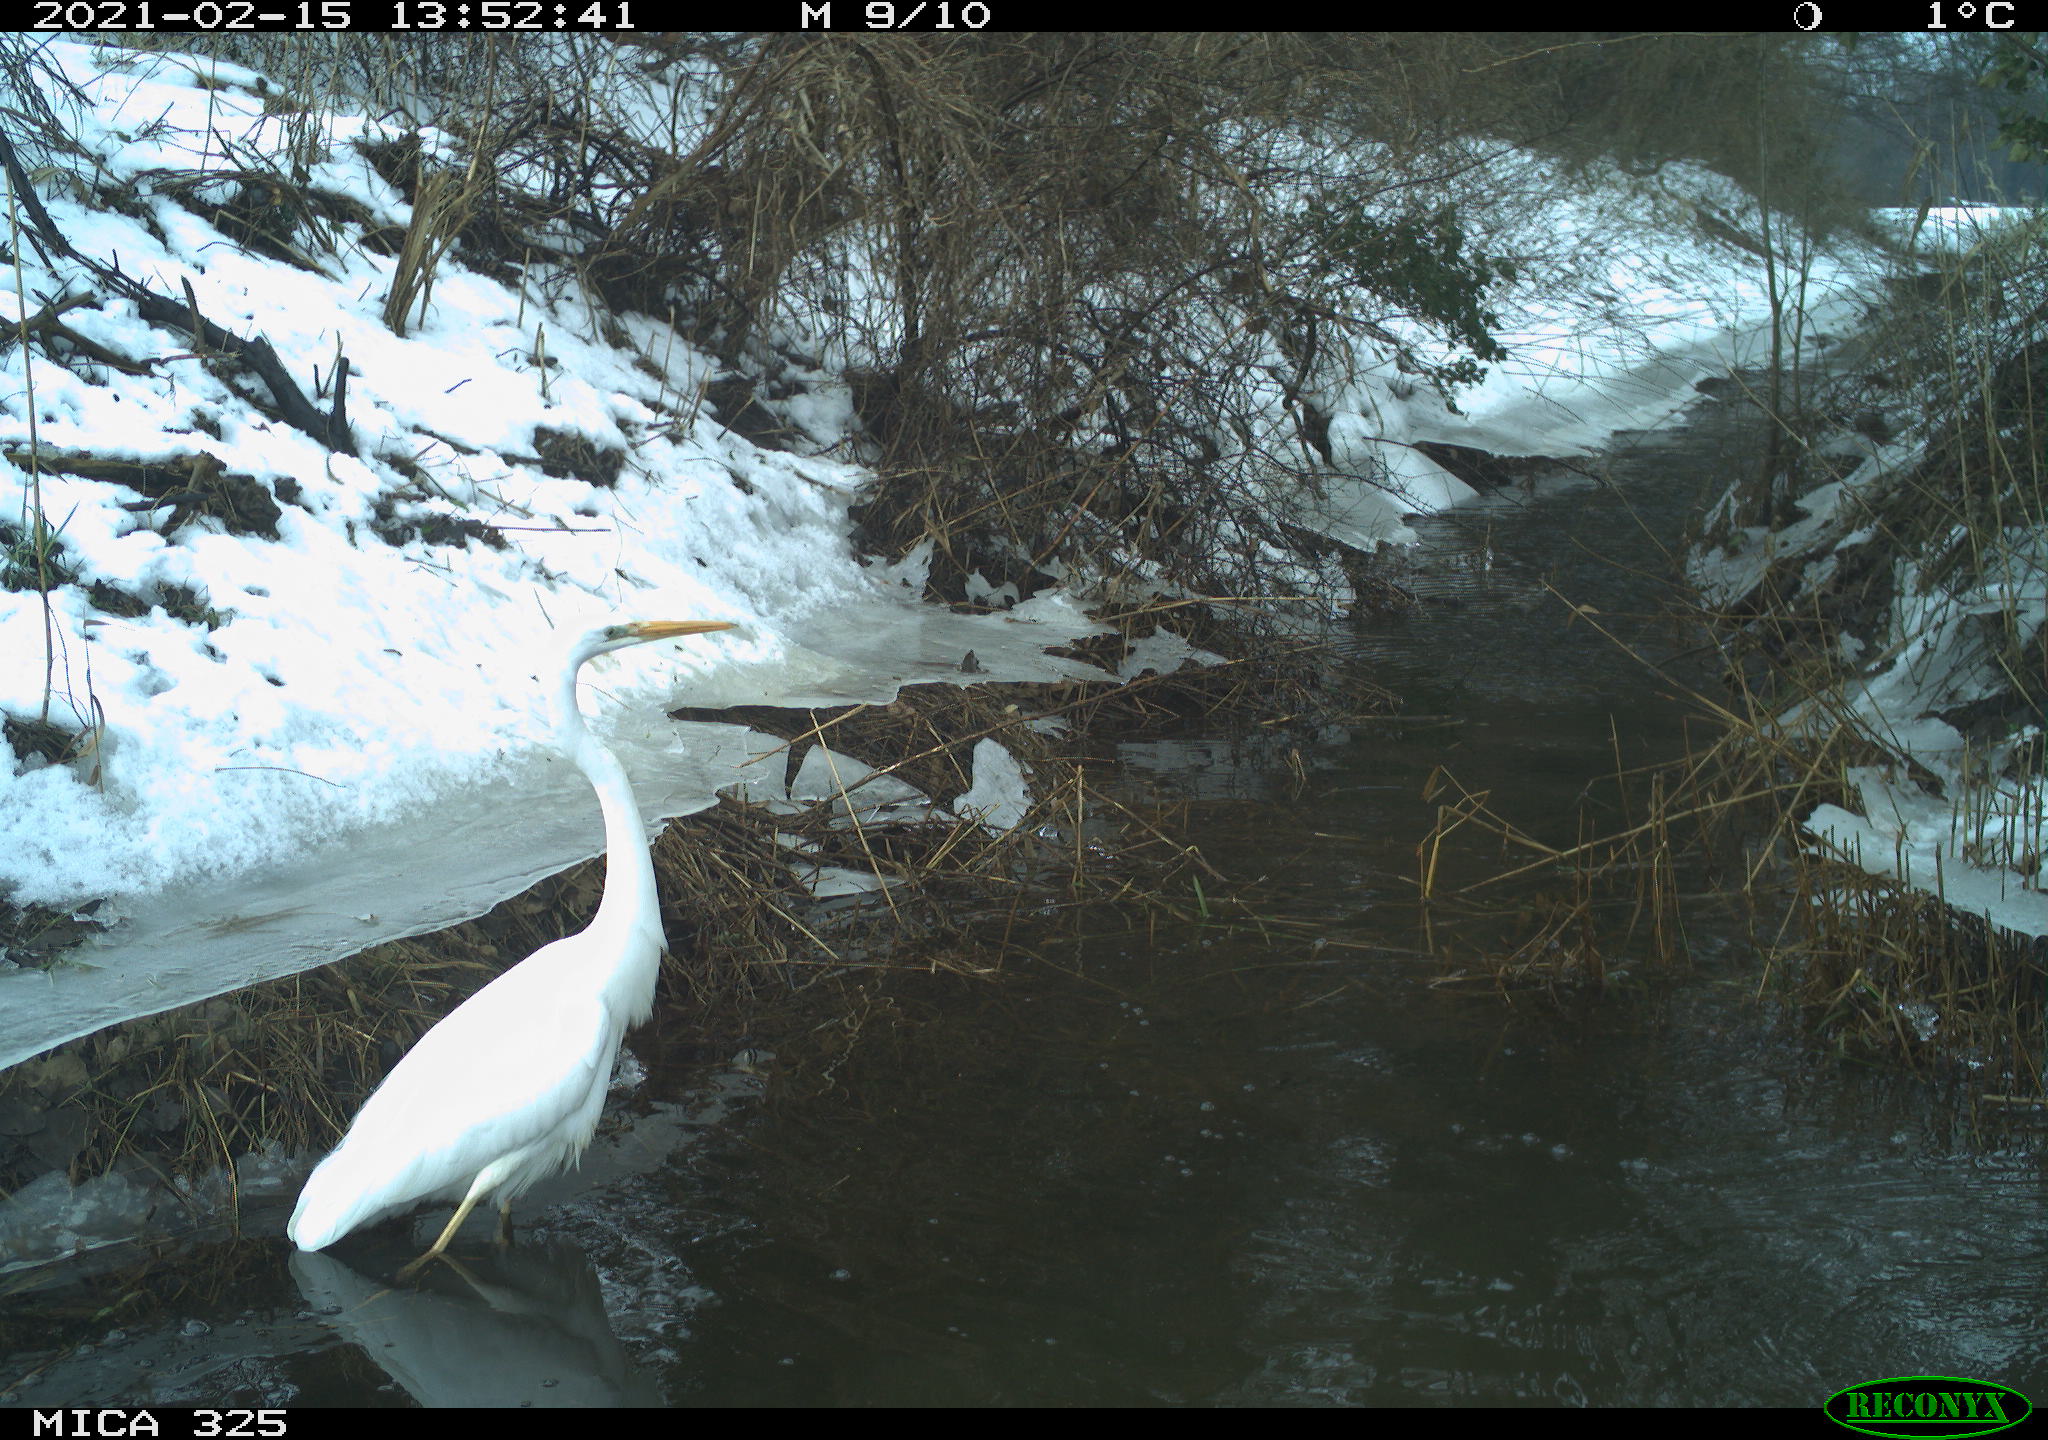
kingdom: Animalia
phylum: Chordata
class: Aves
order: Pelecaniformes
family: Ardeidae
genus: Ardea
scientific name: Ardea alba
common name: Great egret
